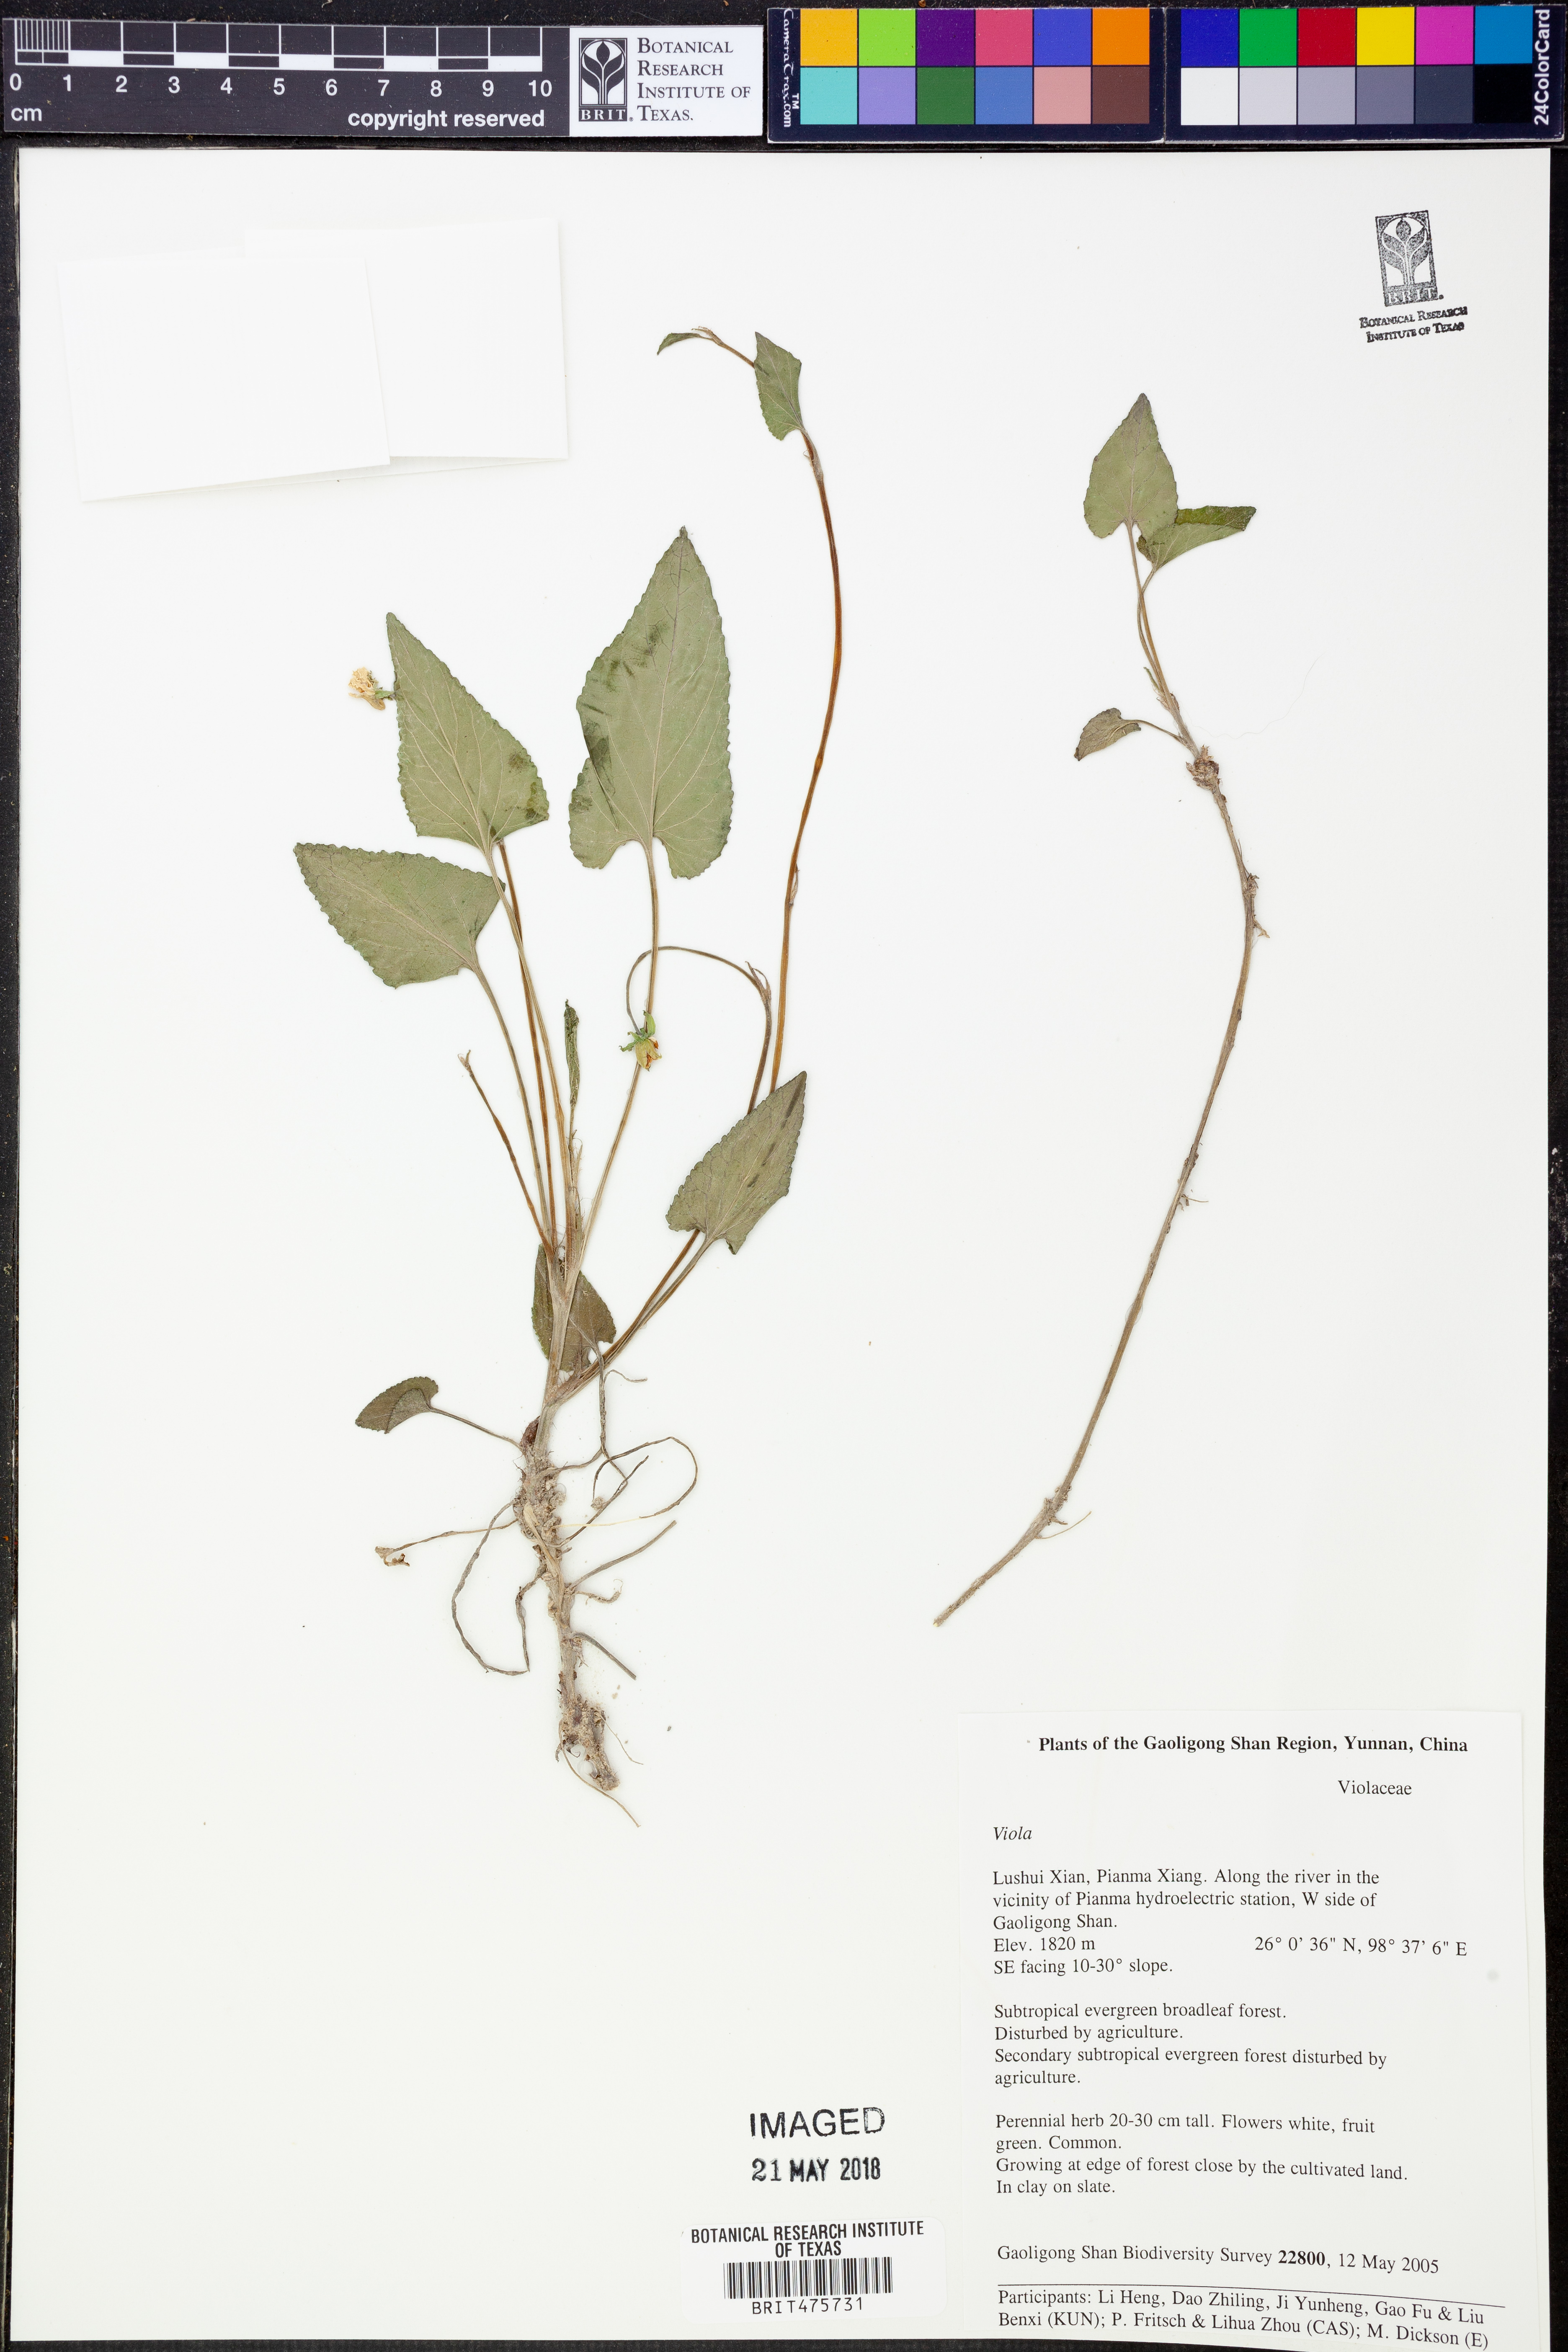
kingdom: Plantae
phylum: Tracheophyta
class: Magnoliopsida
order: Malpighiales
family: Violaceae
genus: Viola
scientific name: Viola
